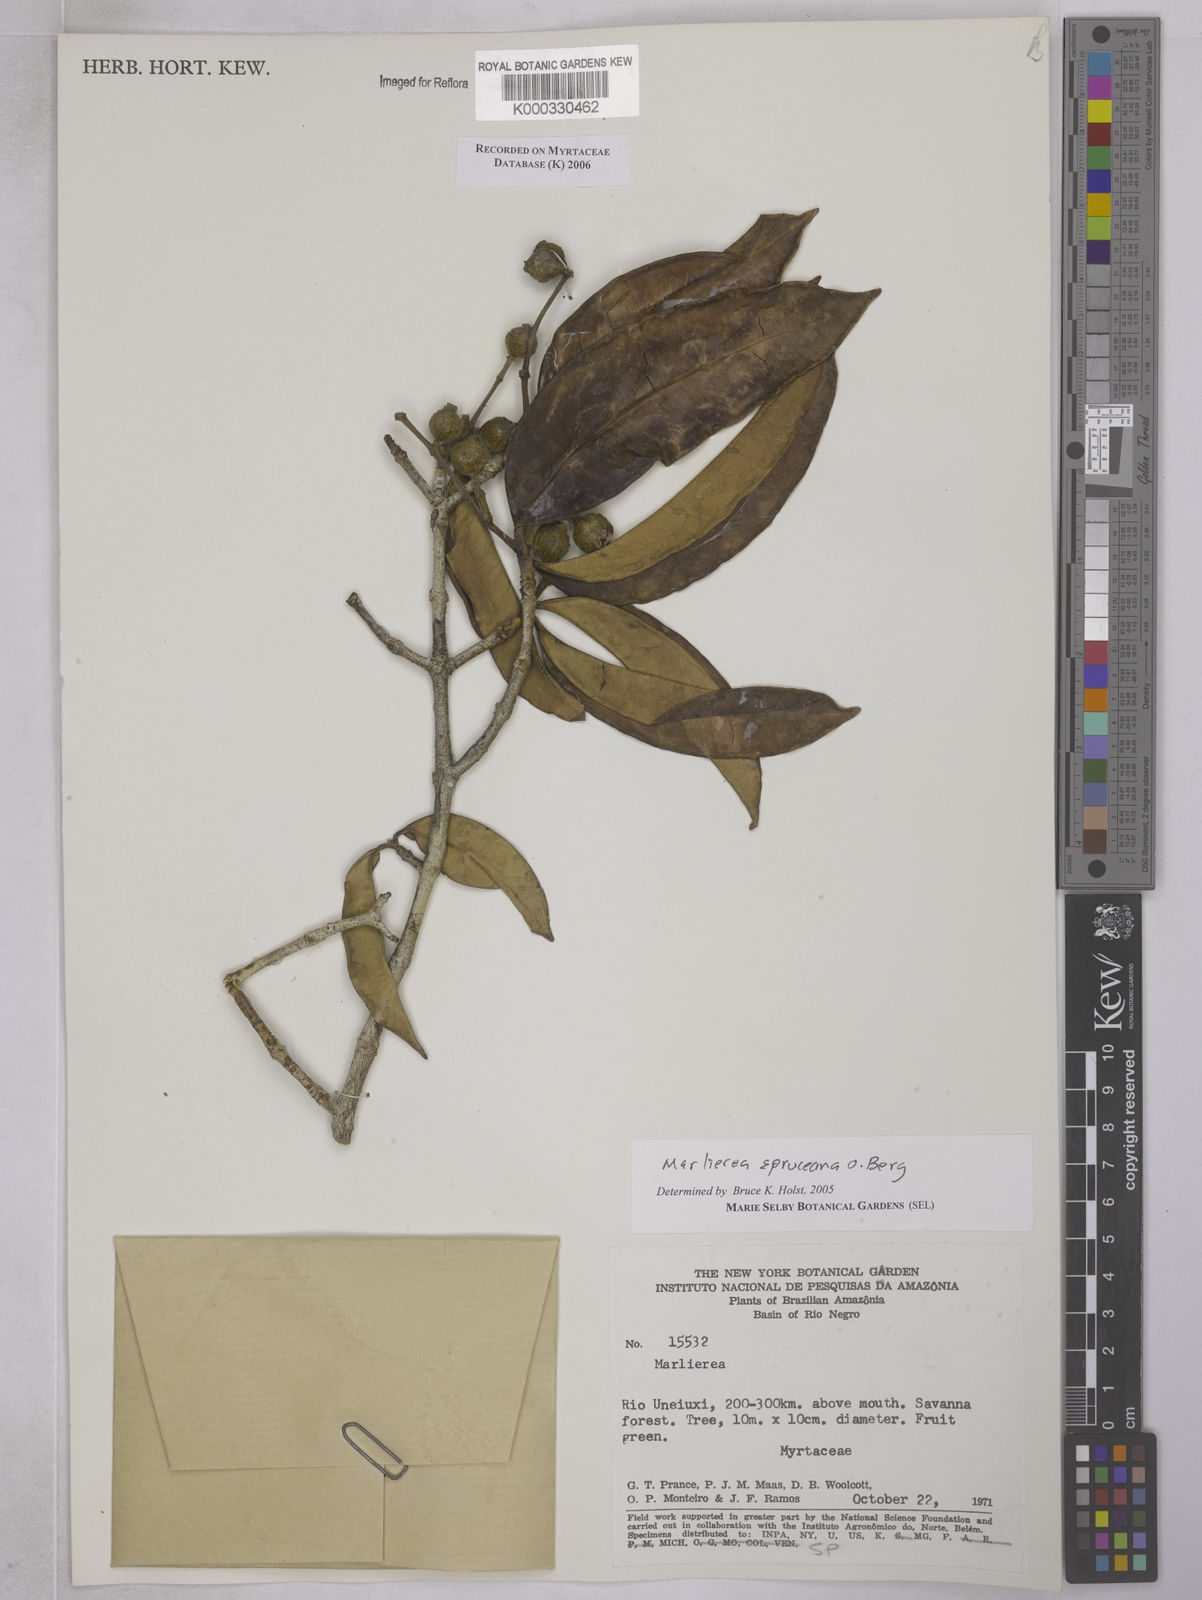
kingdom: Plantae
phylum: Tracheophyta
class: Magnoliopsida
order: Myrtales
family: Myrtaceae
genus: Myrcia
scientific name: Myrcia argentigemma
